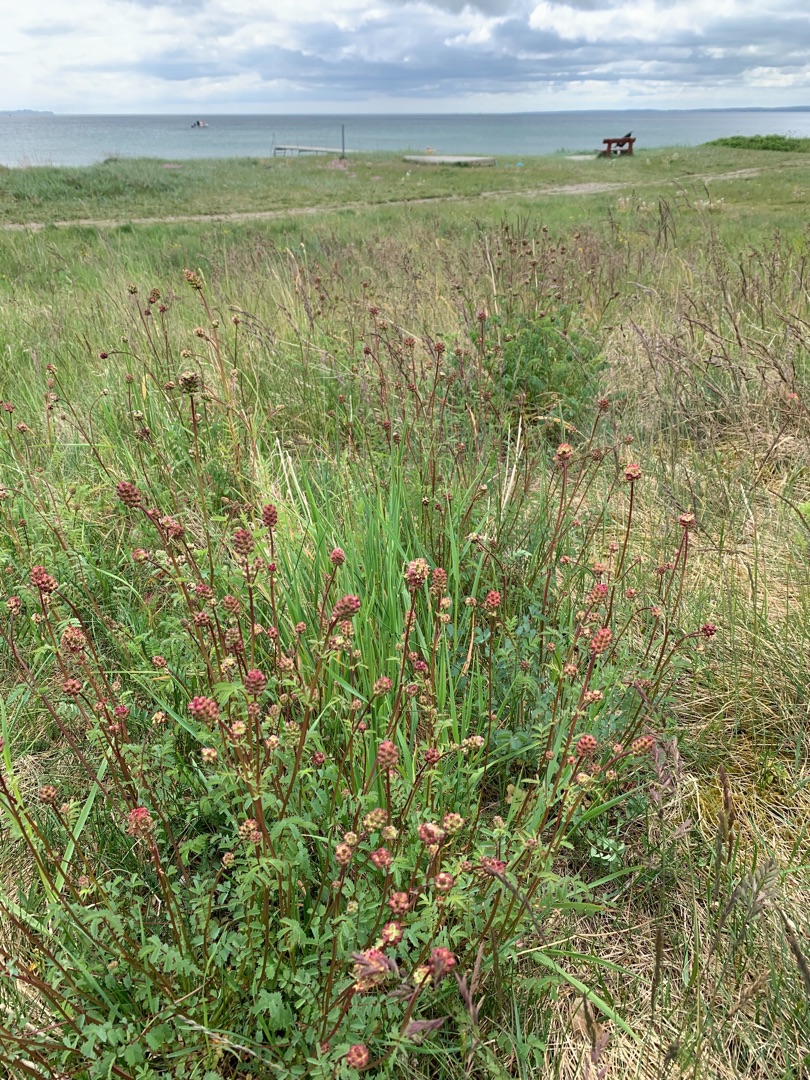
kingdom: Plantae
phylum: Tracheophyta
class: Magnoliopsida
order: Rosales
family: Rosaceae
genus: Poterium
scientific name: Poterium sanguisorba
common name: Bibernelle
